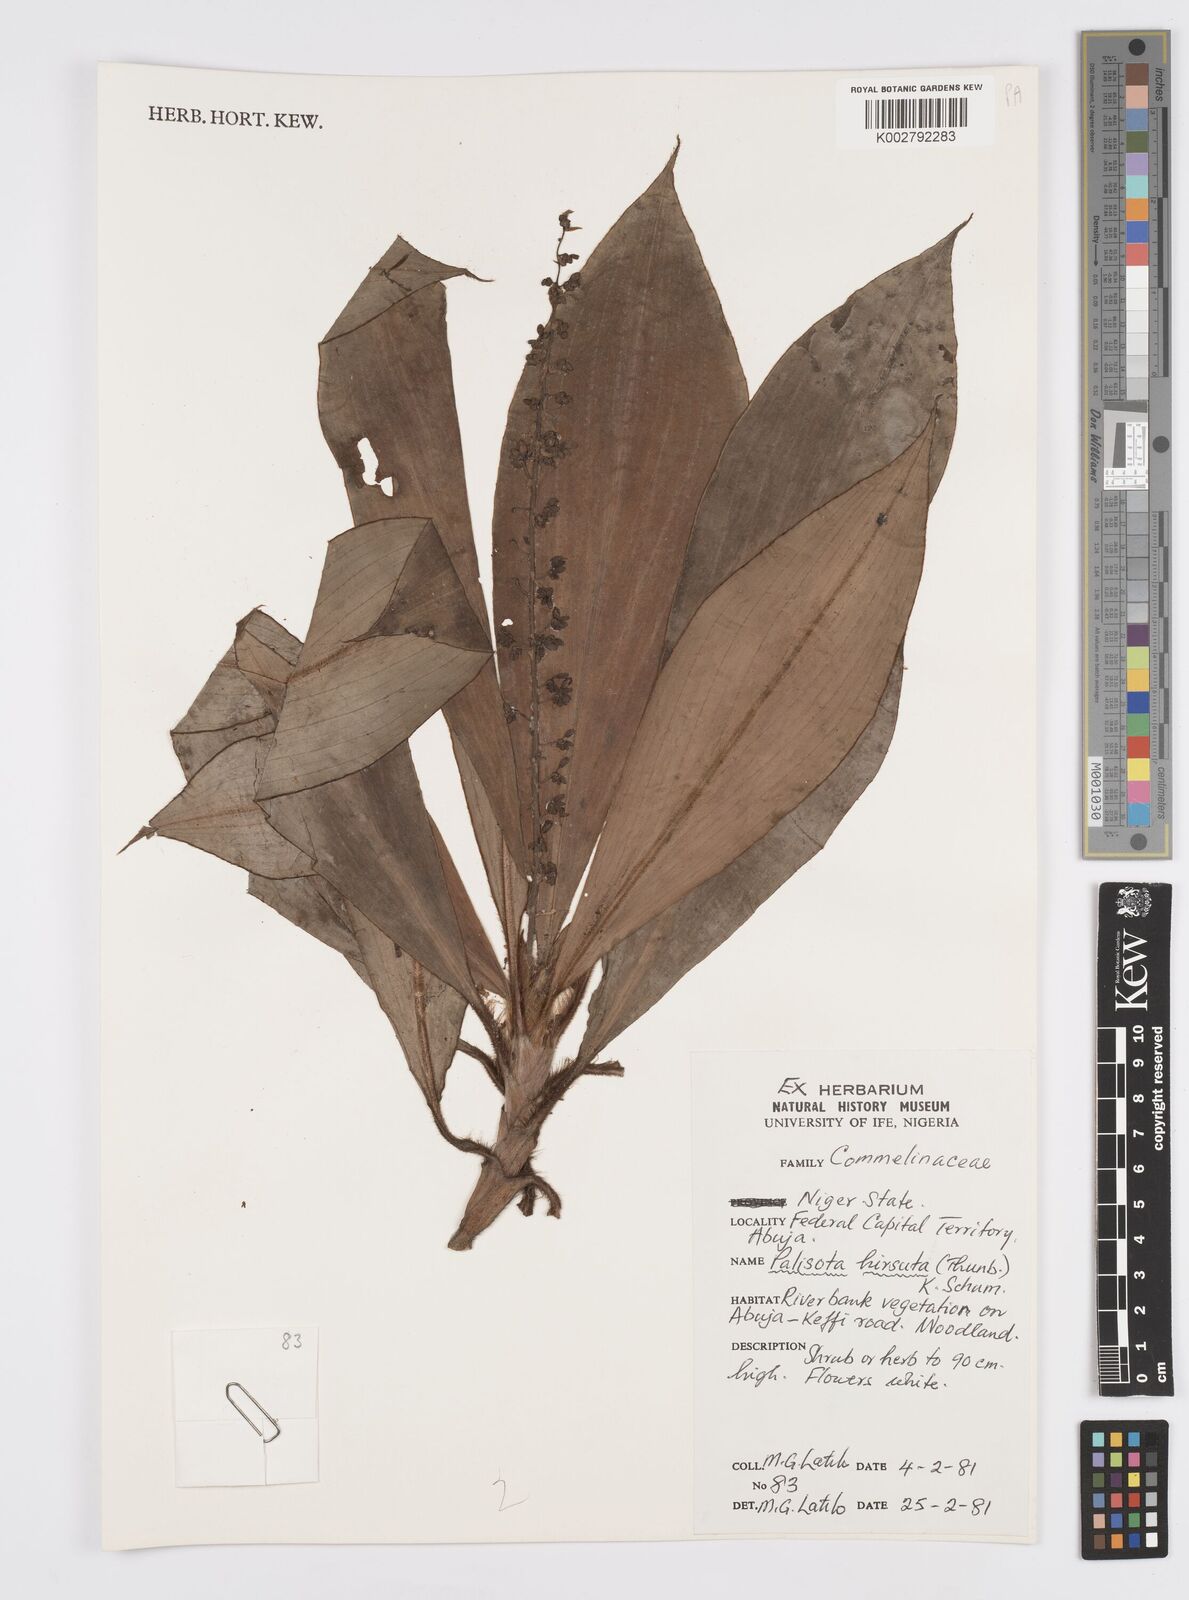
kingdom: Plantae
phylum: Tracheophyta
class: Liliopsida
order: Commelinales
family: Commelinaceae
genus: Palisota
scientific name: Palisota hirsuta
